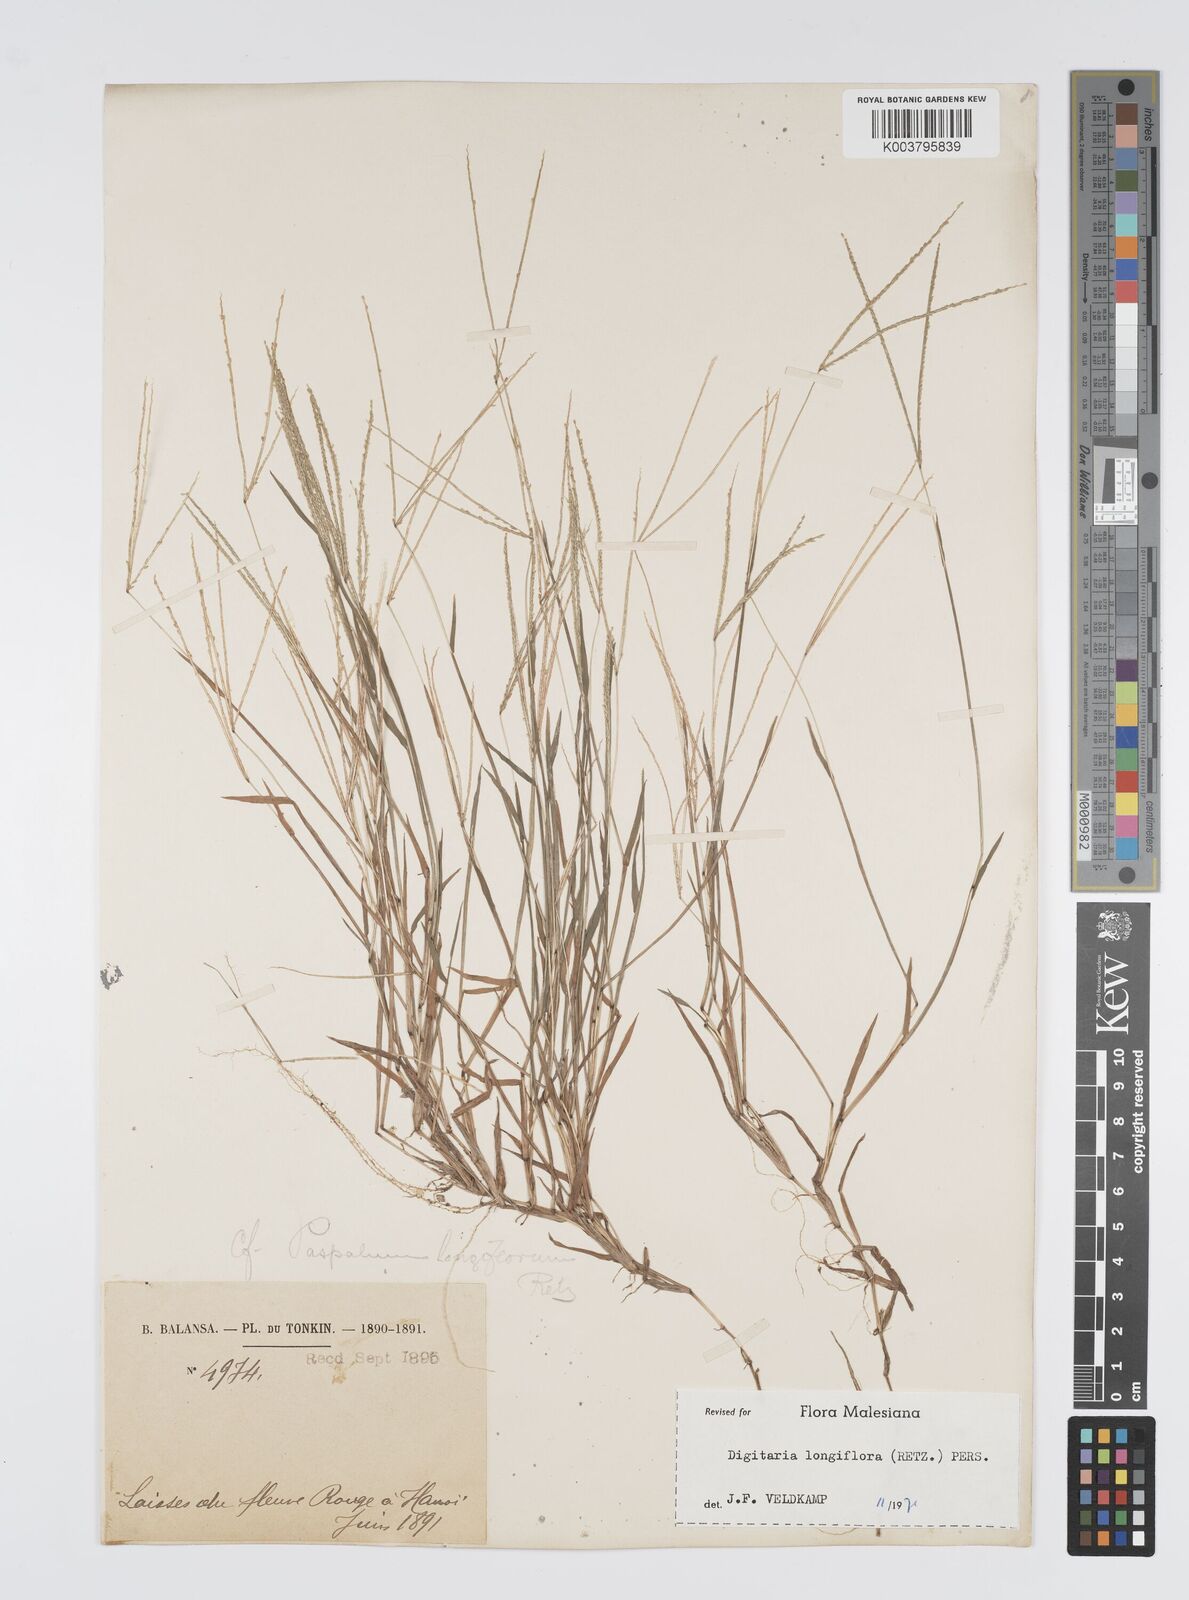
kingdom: Plantae
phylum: Tracheophyta
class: Liliopsida
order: Poales
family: Poaceae
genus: Digitaria
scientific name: Digitaria longiflora
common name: Wire crabgrass
